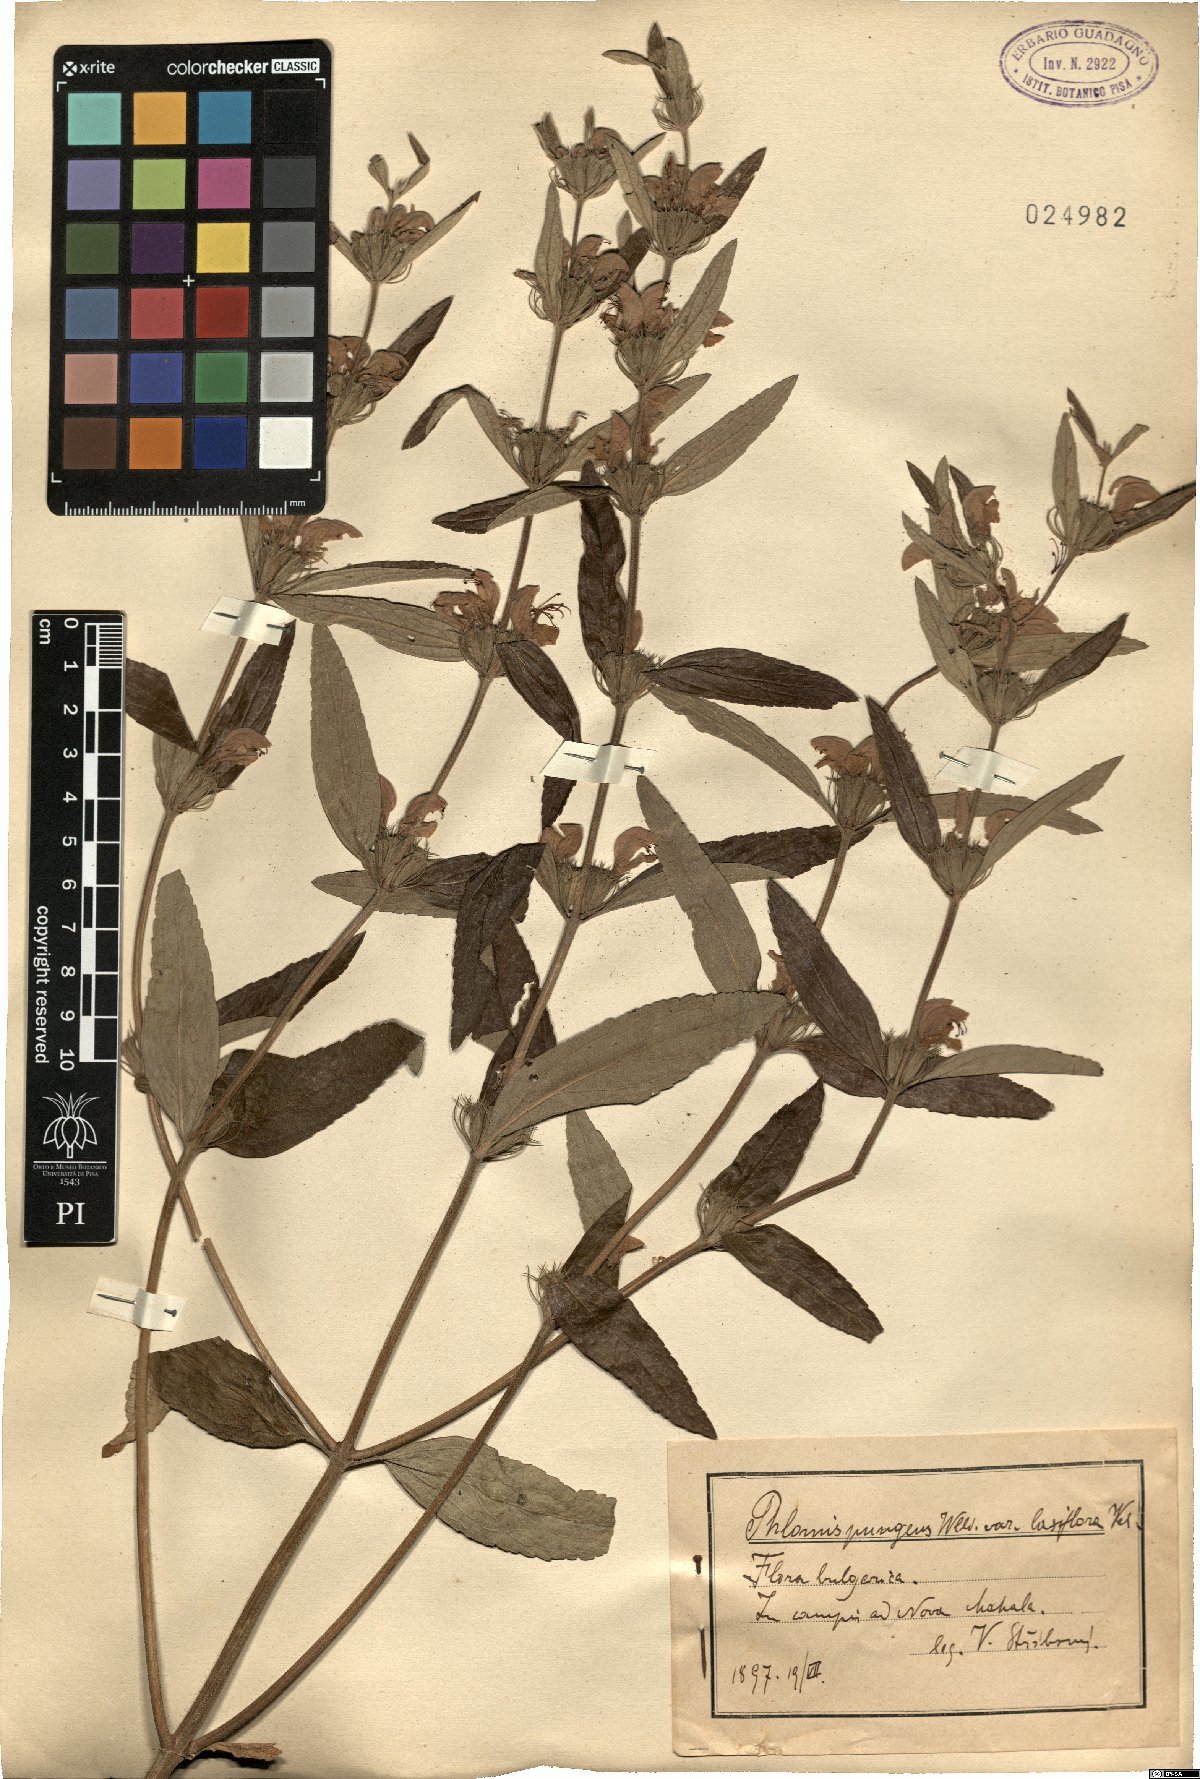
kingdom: Plantae
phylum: Tracheophyta
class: Magnoliopsida
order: Lamiales
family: Lamiaceae
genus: Phlomis
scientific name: Phlomis herba-venti
